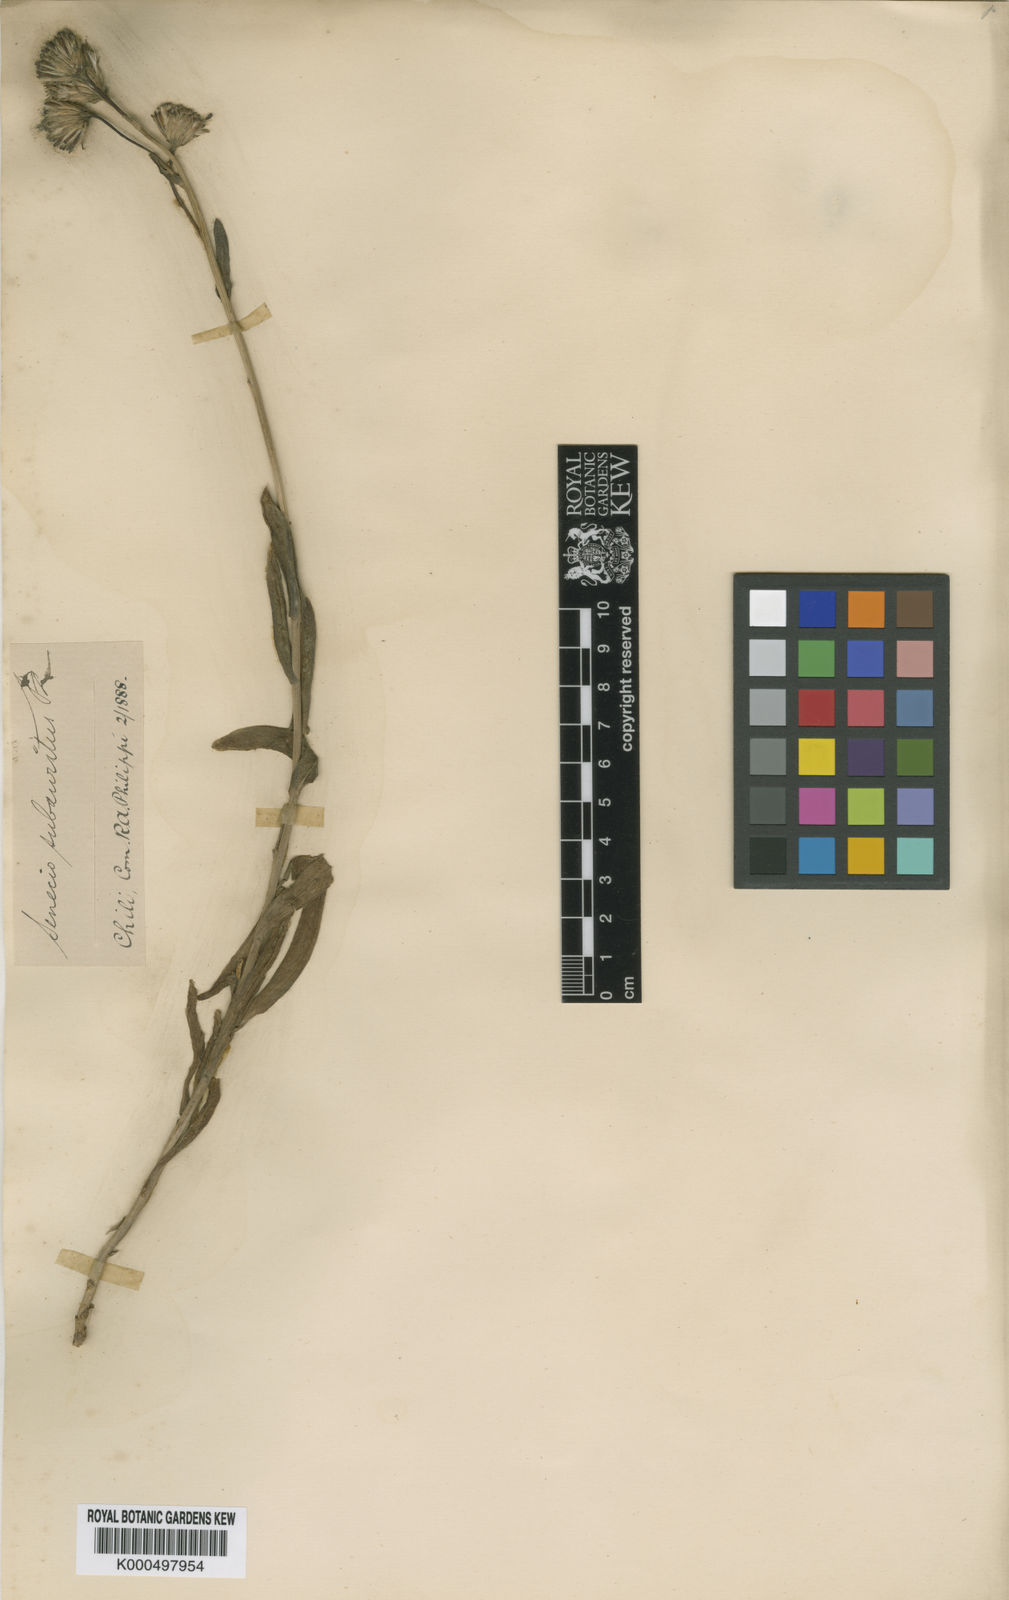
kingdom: Plantae
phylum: Tracheophyta
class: Magnoliopsida
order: Asterales
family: Asteraceae
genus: Senecio
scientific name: Senecio subauritus
